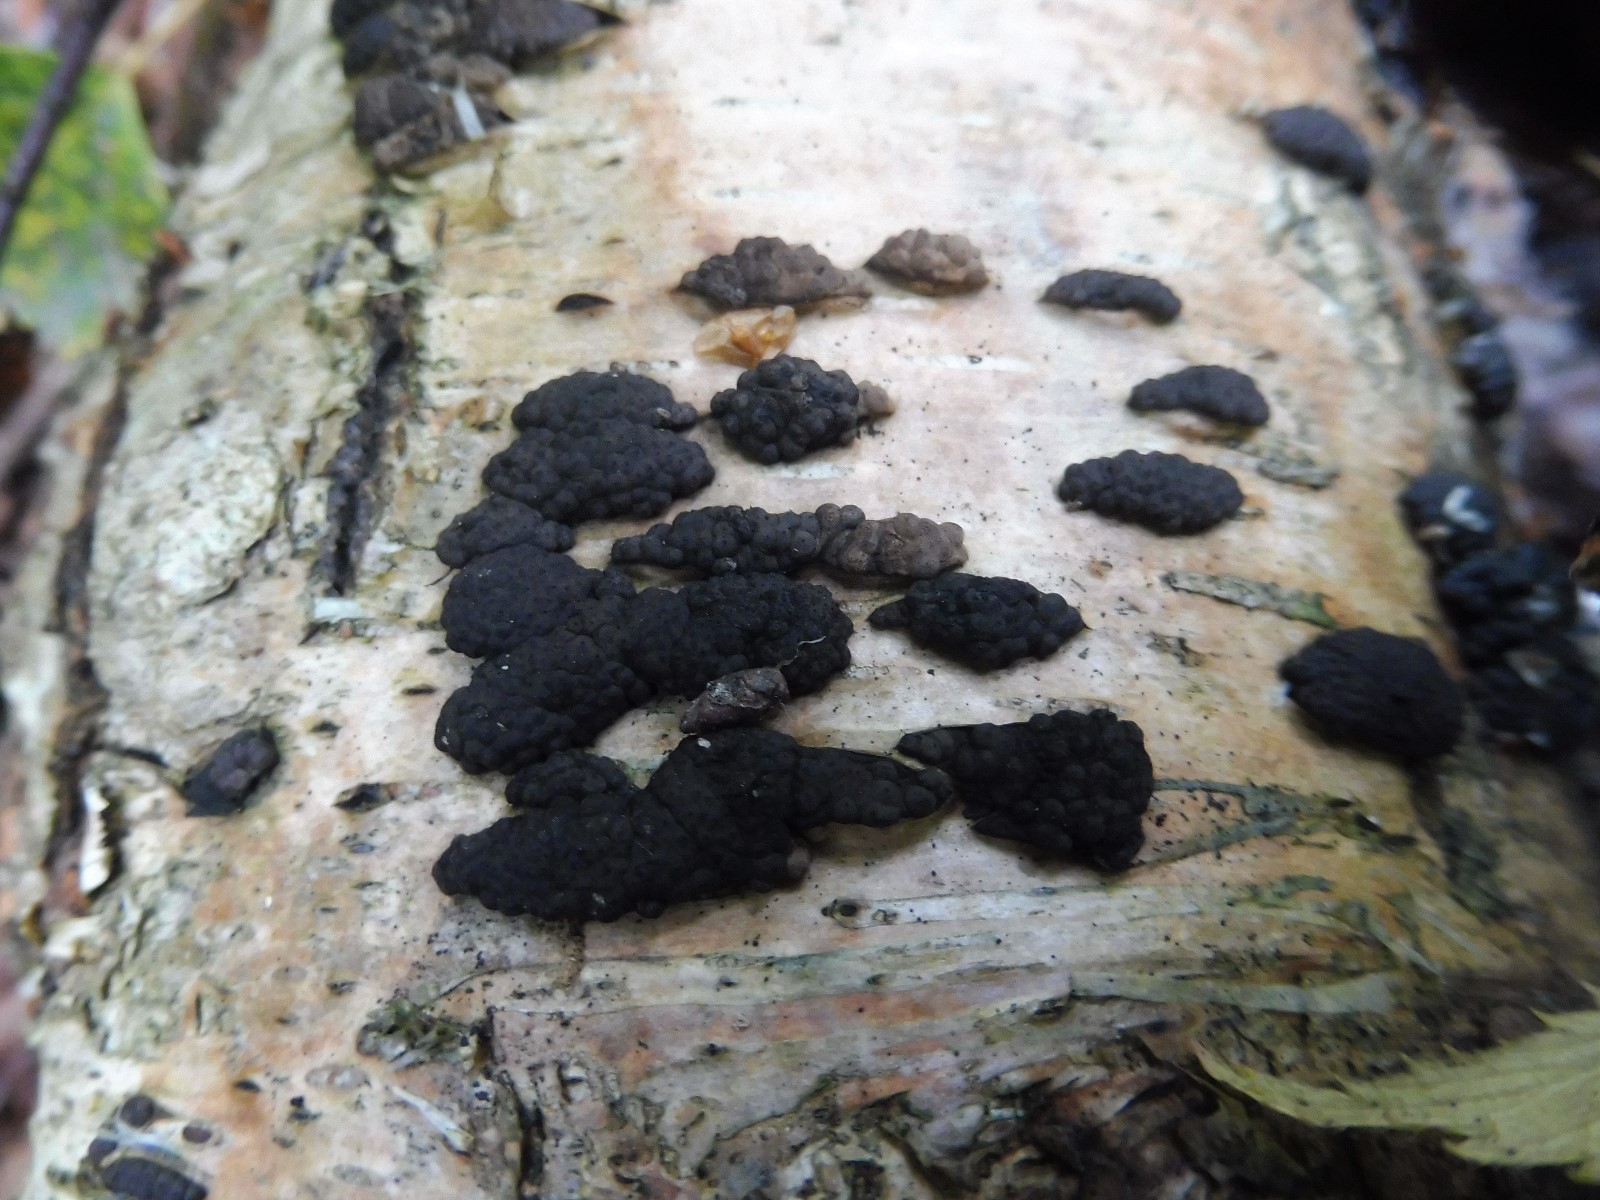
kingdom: Fungi
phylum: Ascomycota
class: Sordariomycetes
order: Xylariales
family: Hypoxylaceae
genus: Jackrogersella
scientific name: Jackrogersella multiformis
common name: foranderlig kulbær
